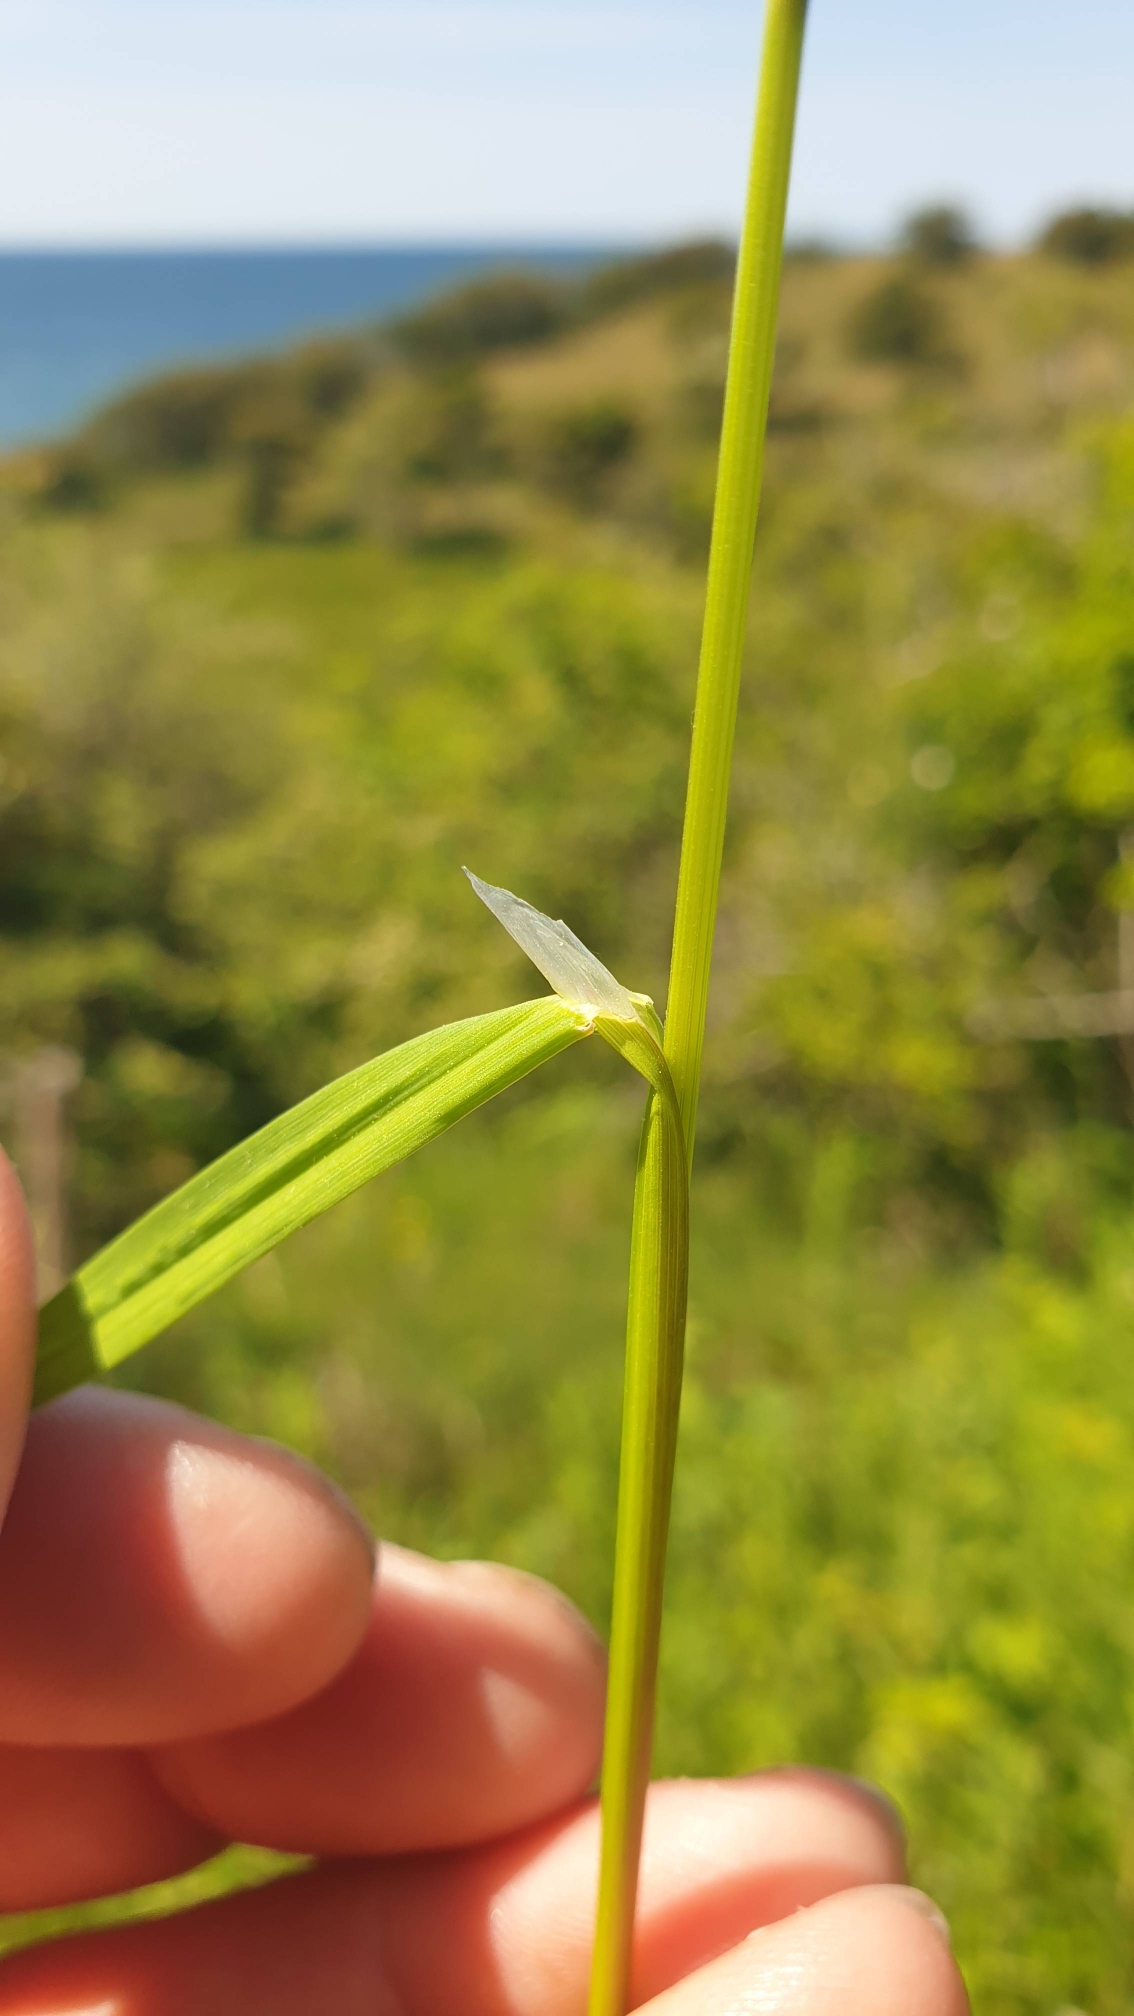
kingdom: Plantae
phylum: Tracheophyta
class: Liliopsida
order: Poales
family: Poaceae
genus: Poa
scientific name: Poa trivialis
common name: Almindelig rapgræs
